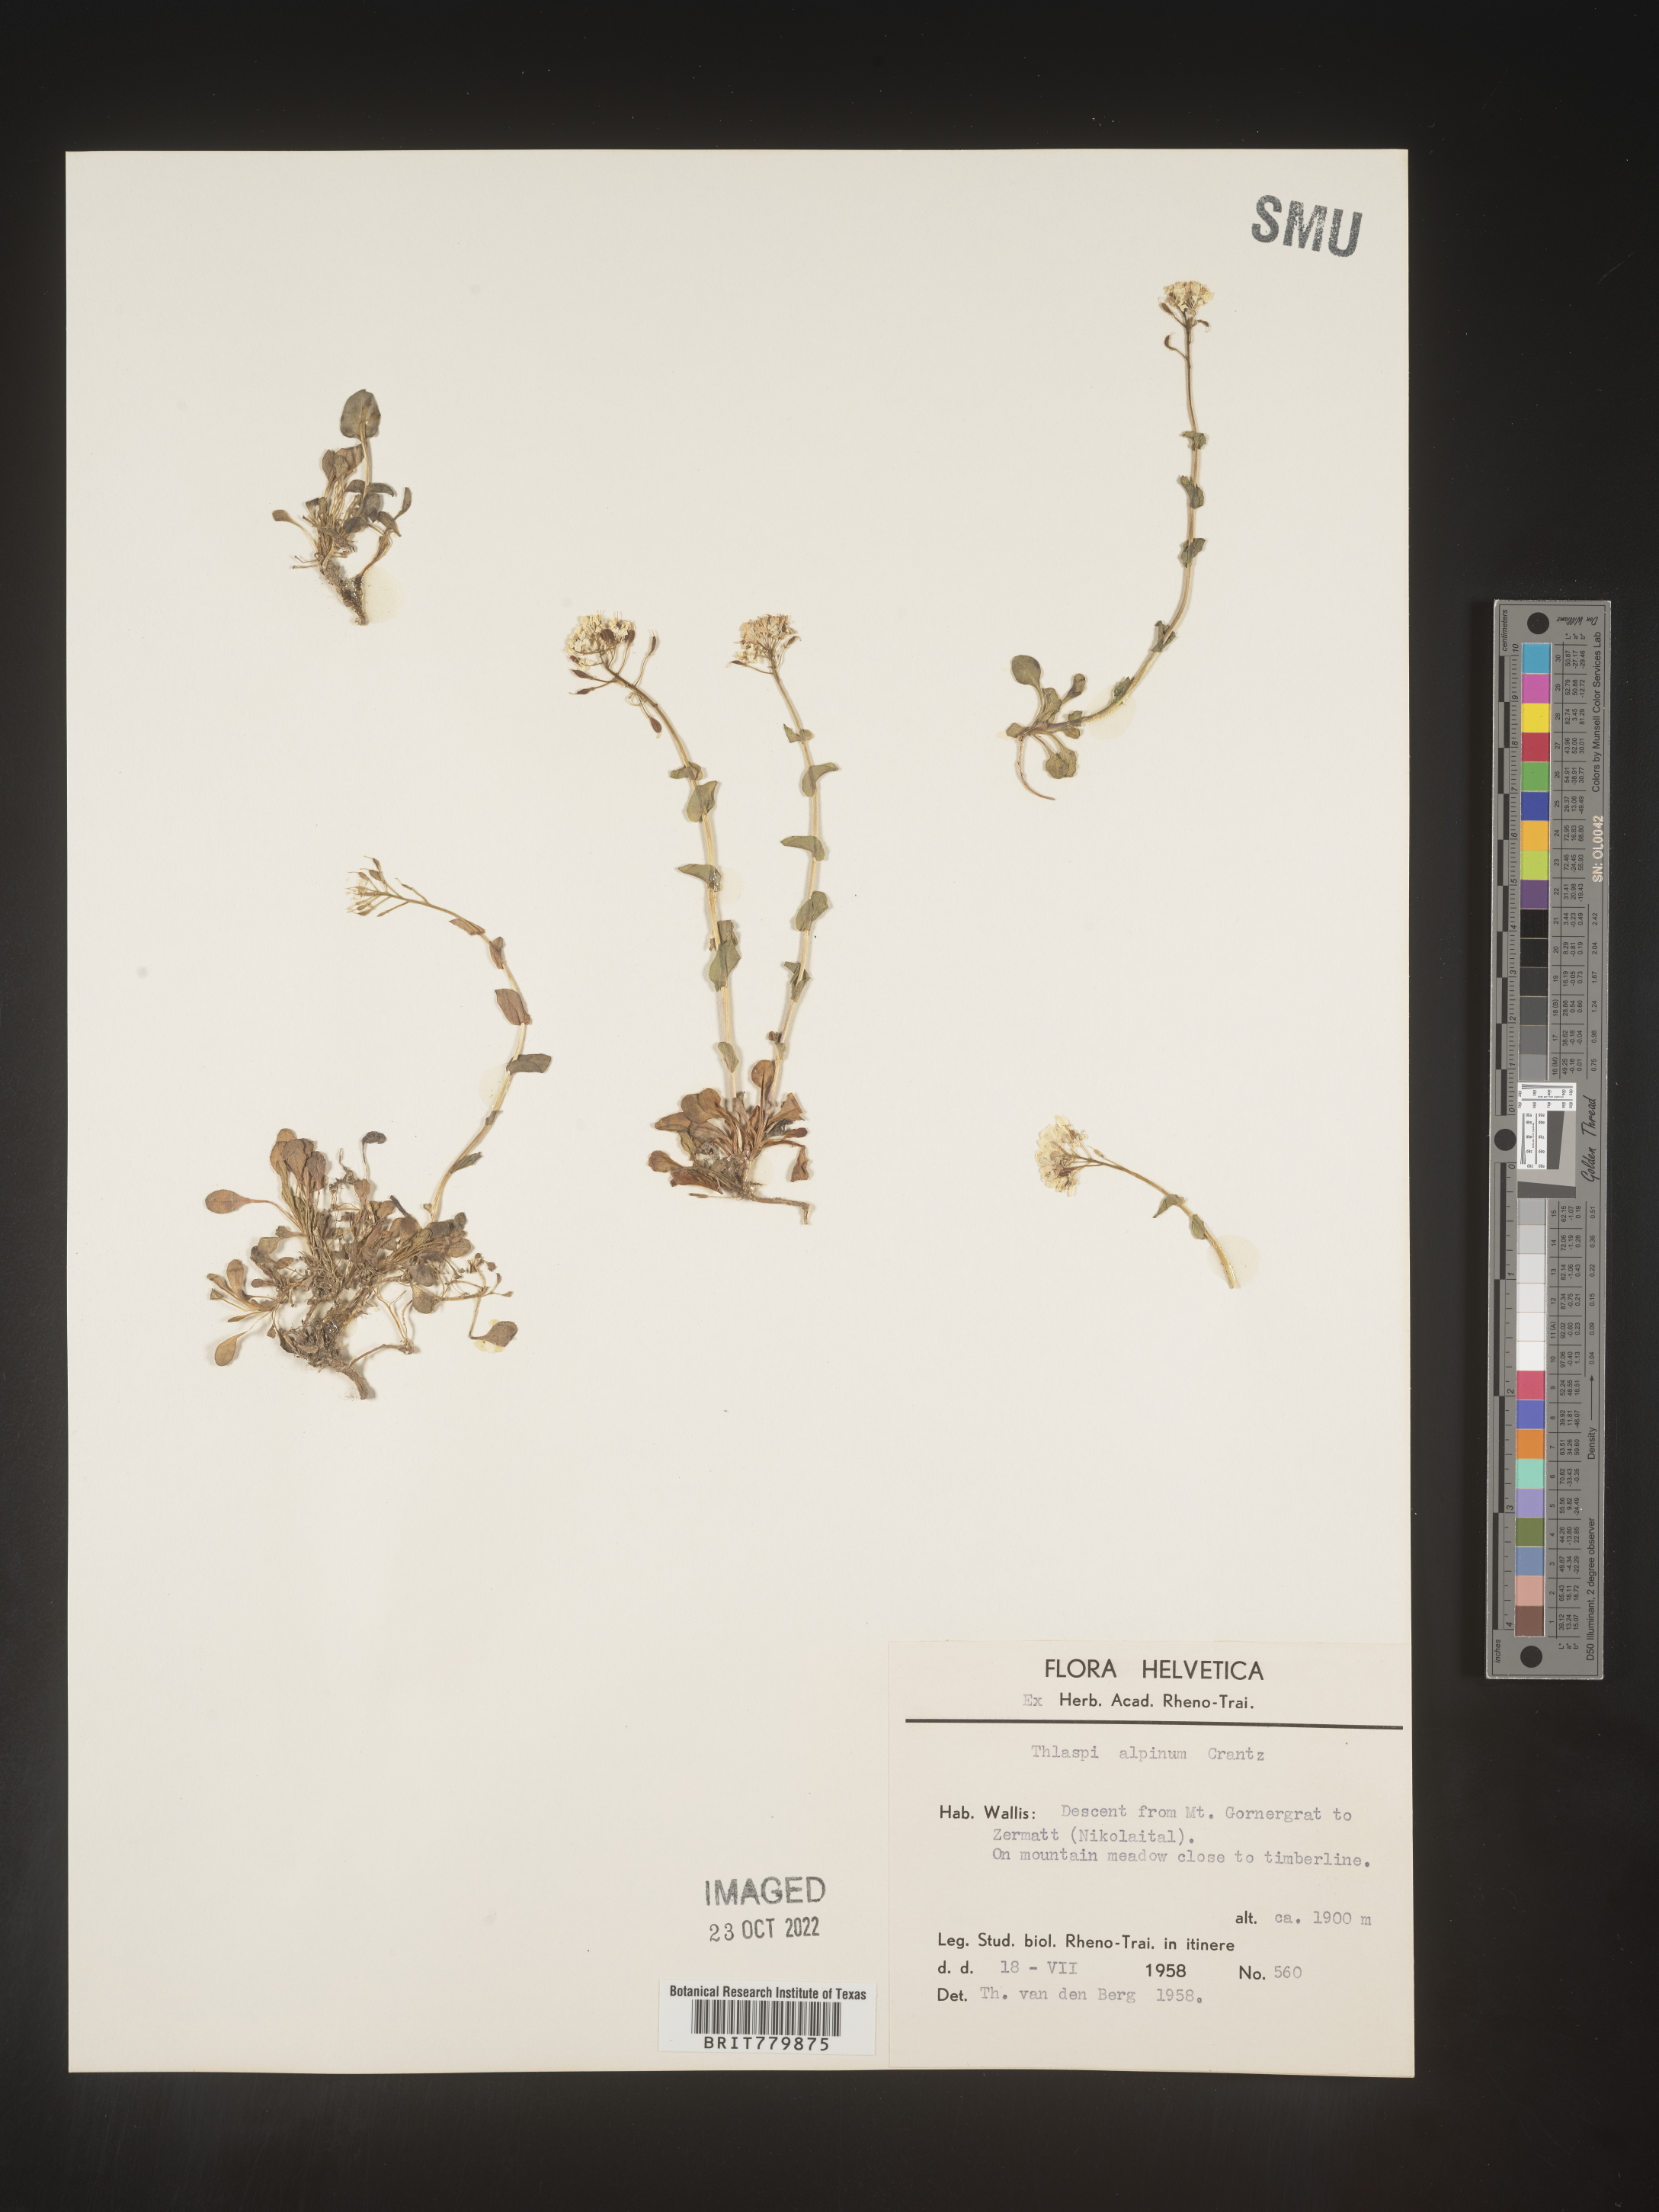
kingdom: Plantae
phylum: Tracheophyta
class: Magnoliopsida
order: Brassicales
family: Brassicaceae
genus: Thlaspi
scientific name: Thlaspi
